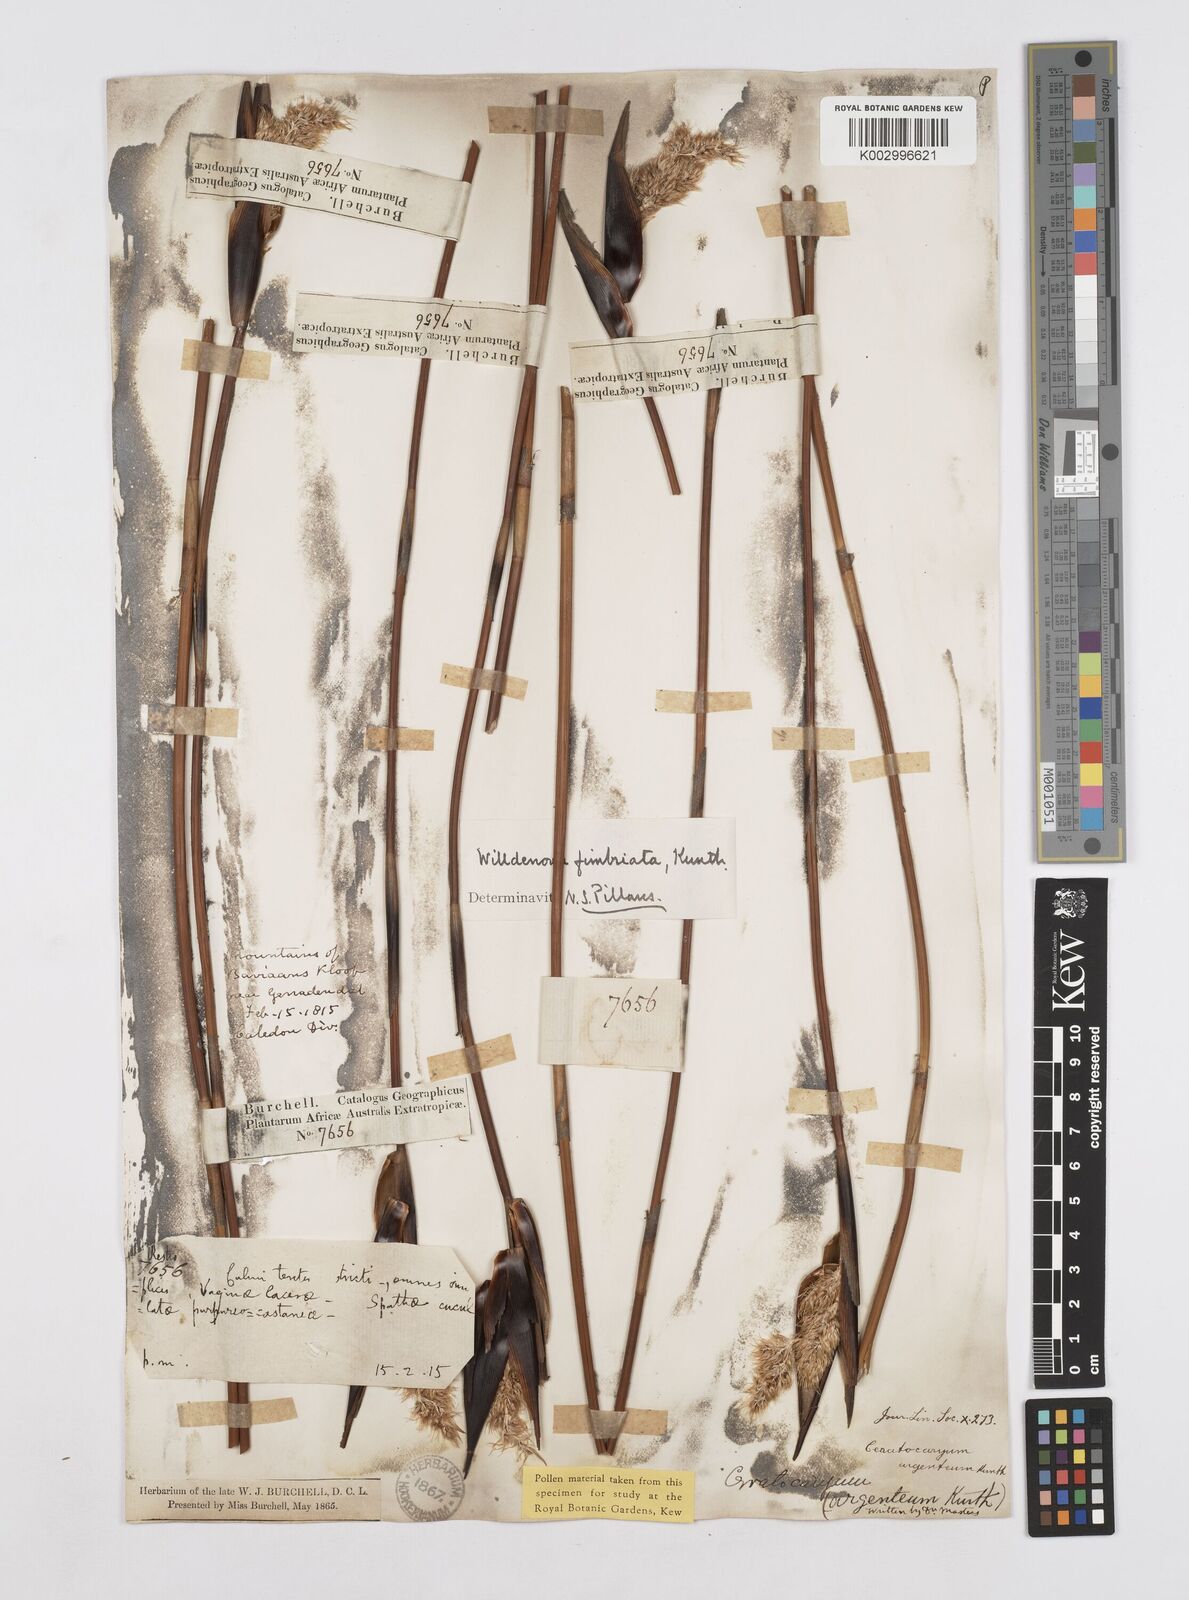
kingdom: Plantae
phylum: Tracheophyta
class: Liliopsida
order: Poales
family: Restionaceae
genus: Ceratocaryum
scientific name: Ceratocaryum decipiens
